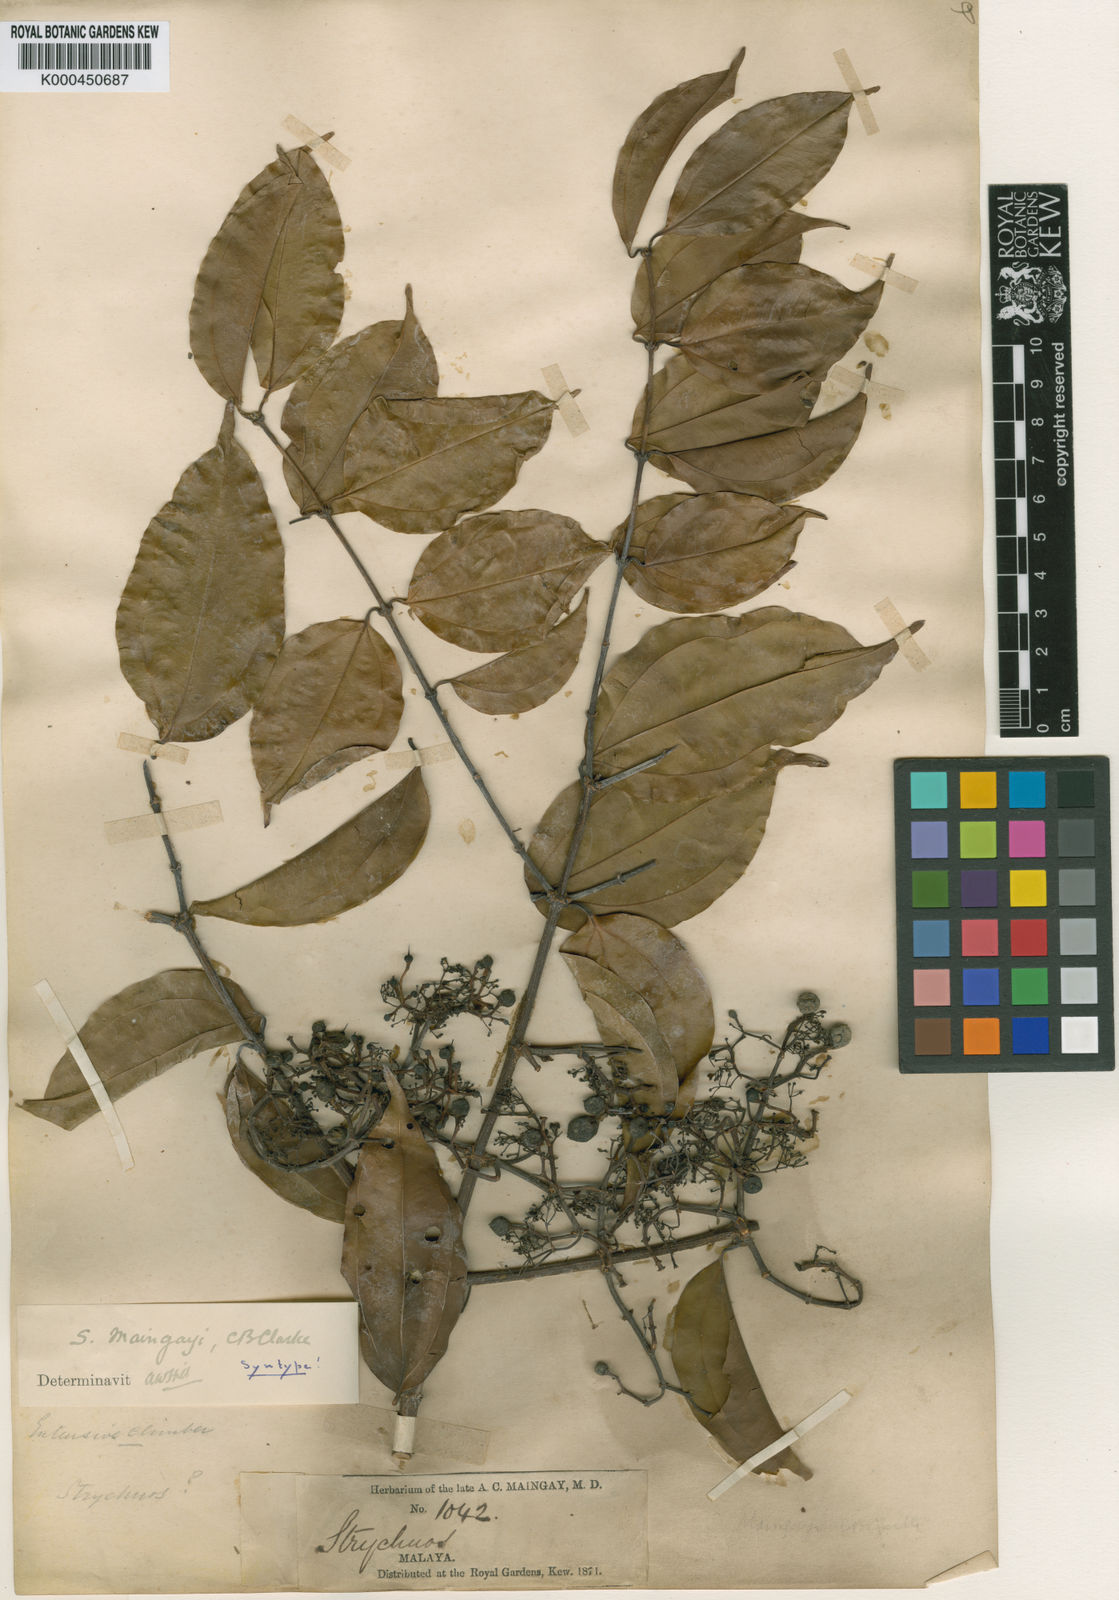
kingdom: Plantae
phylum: Tracheophyta
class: Magnoliopsida
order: Gentianales
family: Loganiaceae
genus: Strychnos
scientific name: Strychnos maingayi
